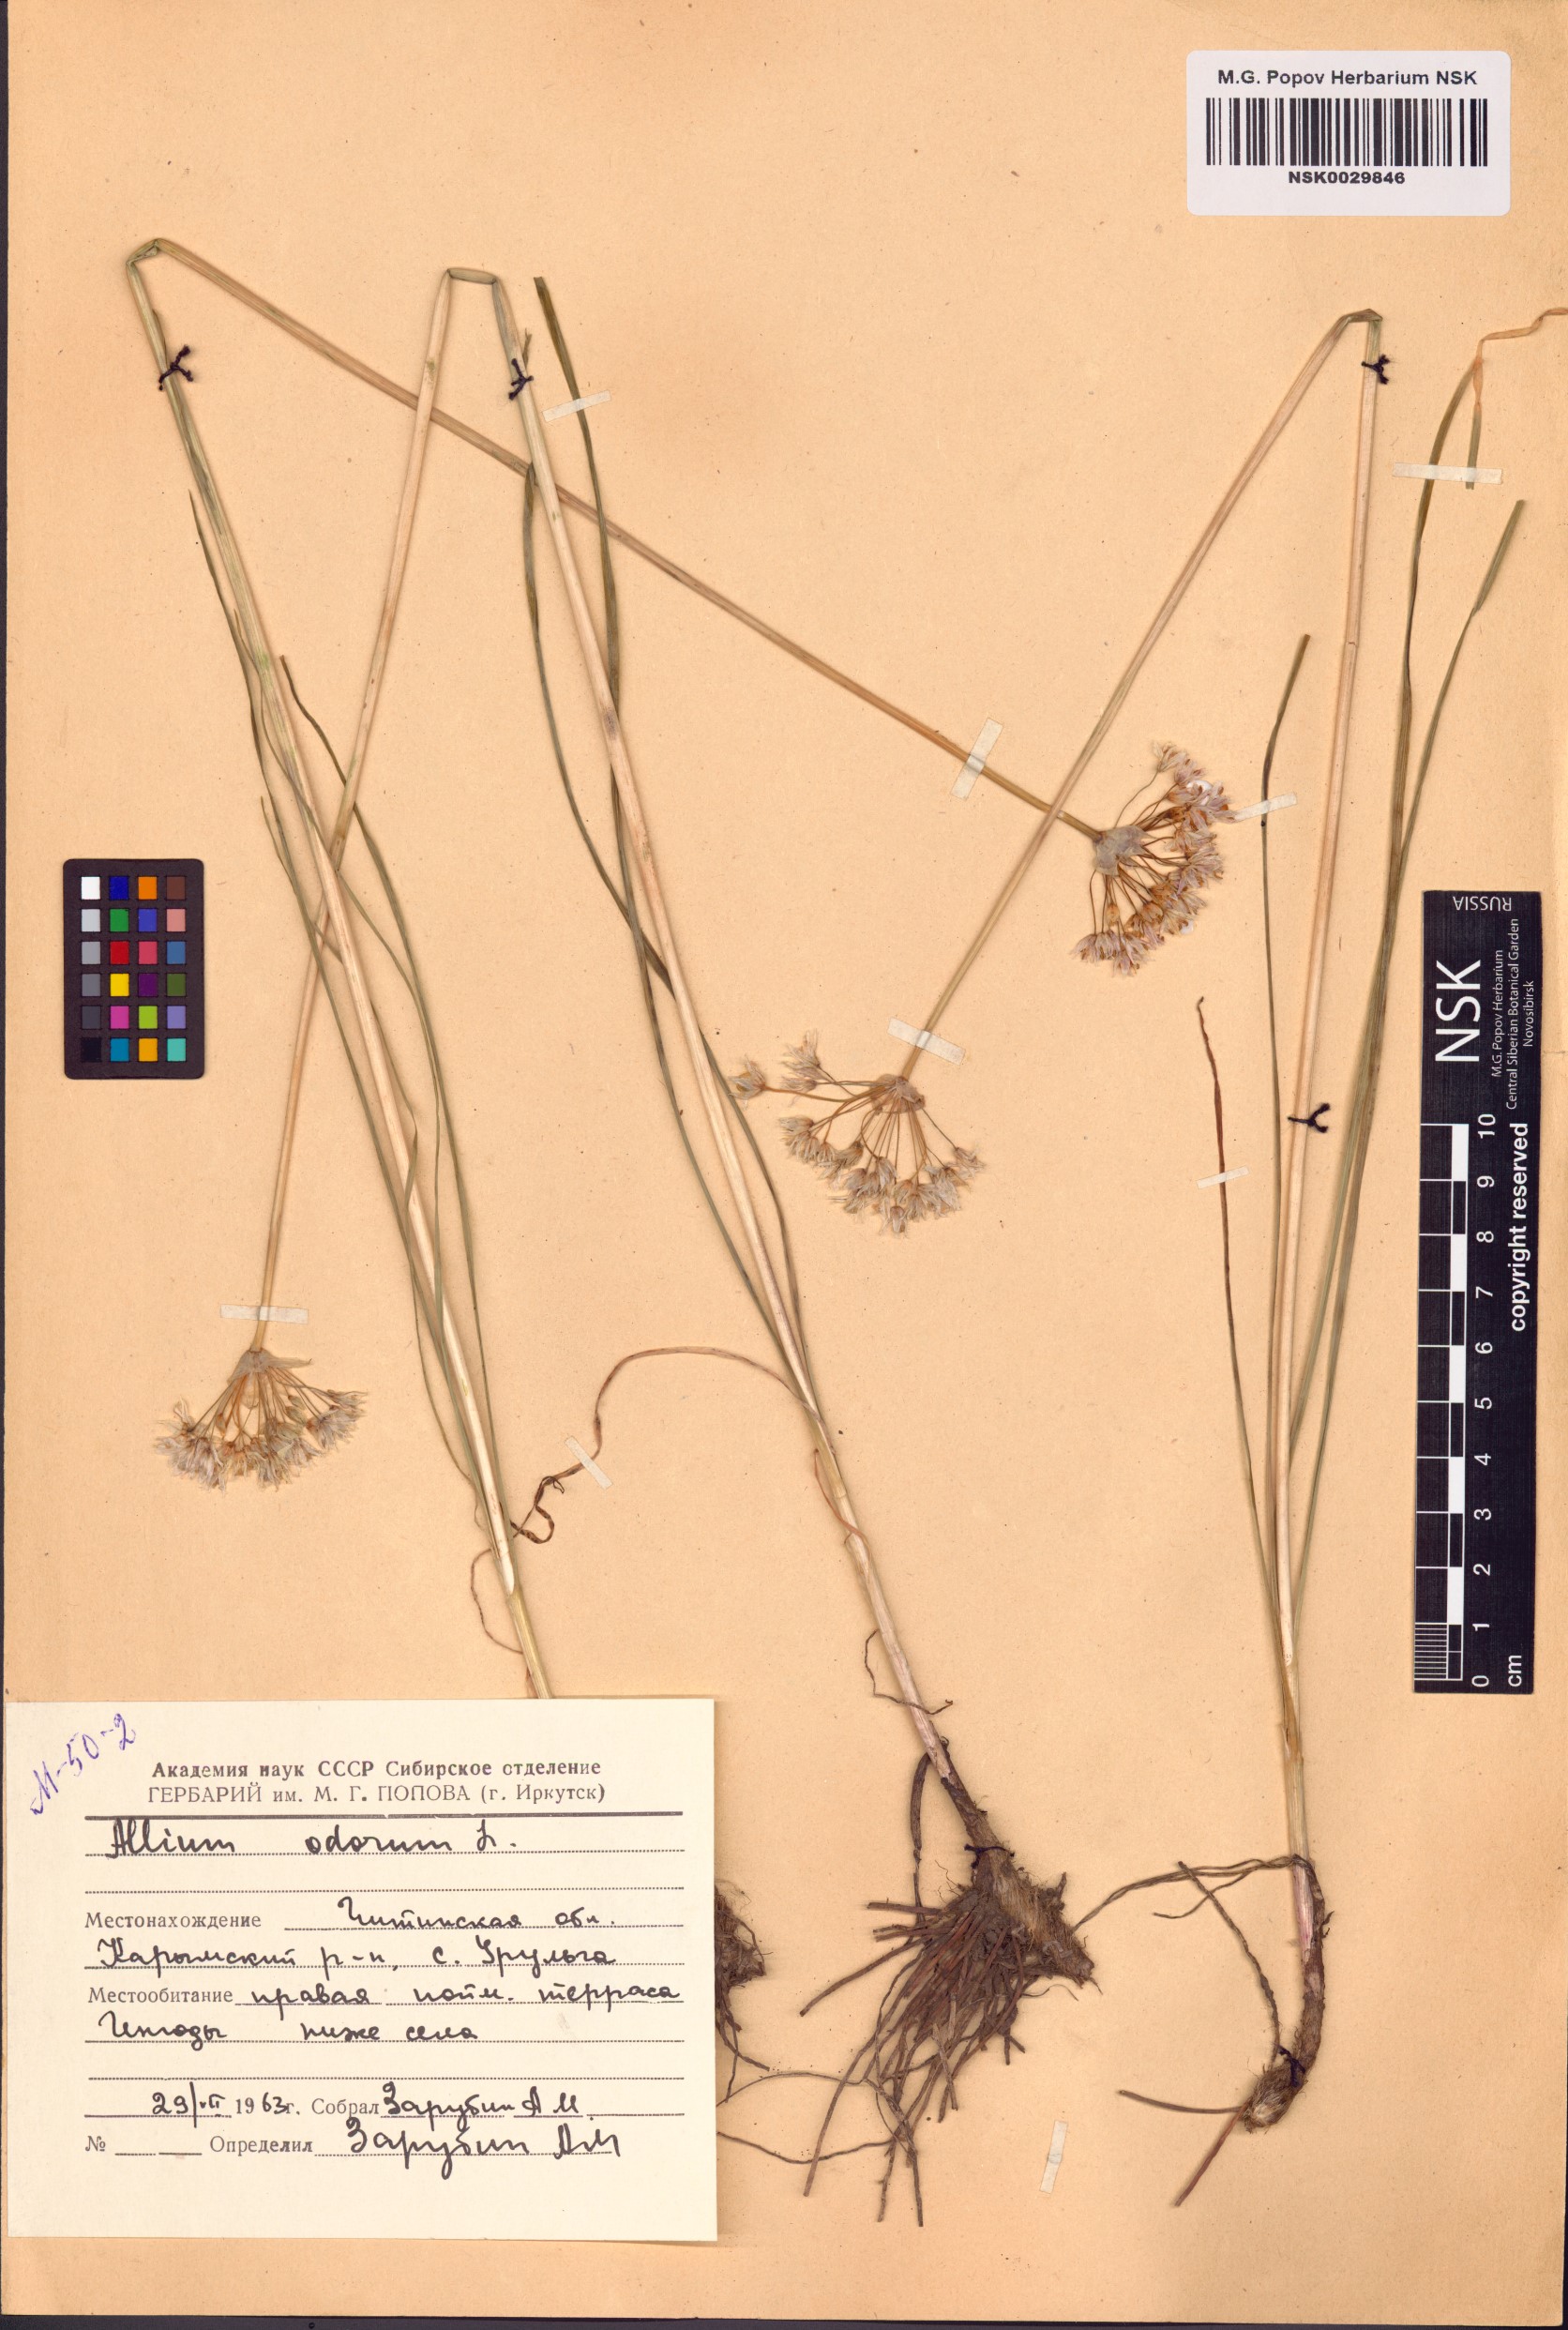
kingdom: Plantae
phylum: Tracheophyta
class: Liliopsida
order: Asparagales
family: Amaryllidaceae
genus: Allium
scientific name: Allium ramosum
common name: Fragrant garlic
